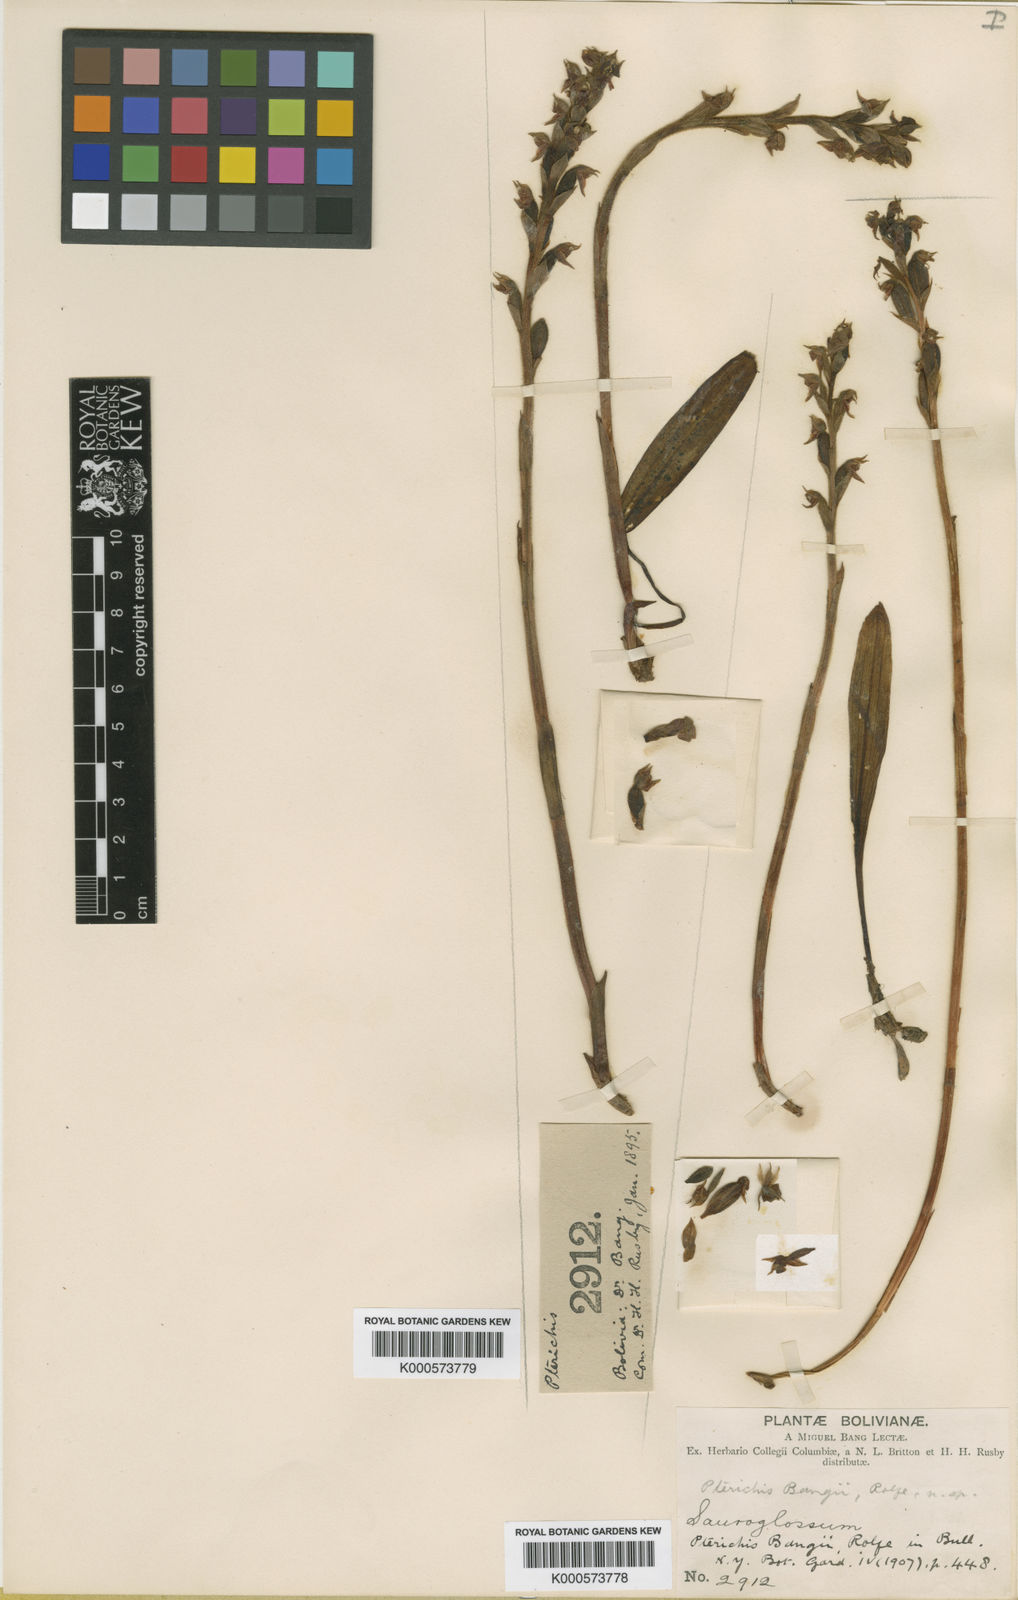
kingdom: Plantae
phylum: Tracheophyta
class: Liliopsida
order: Asparagales
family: Orchidaceae
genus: Pterichis
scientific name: Pterichis bangii
